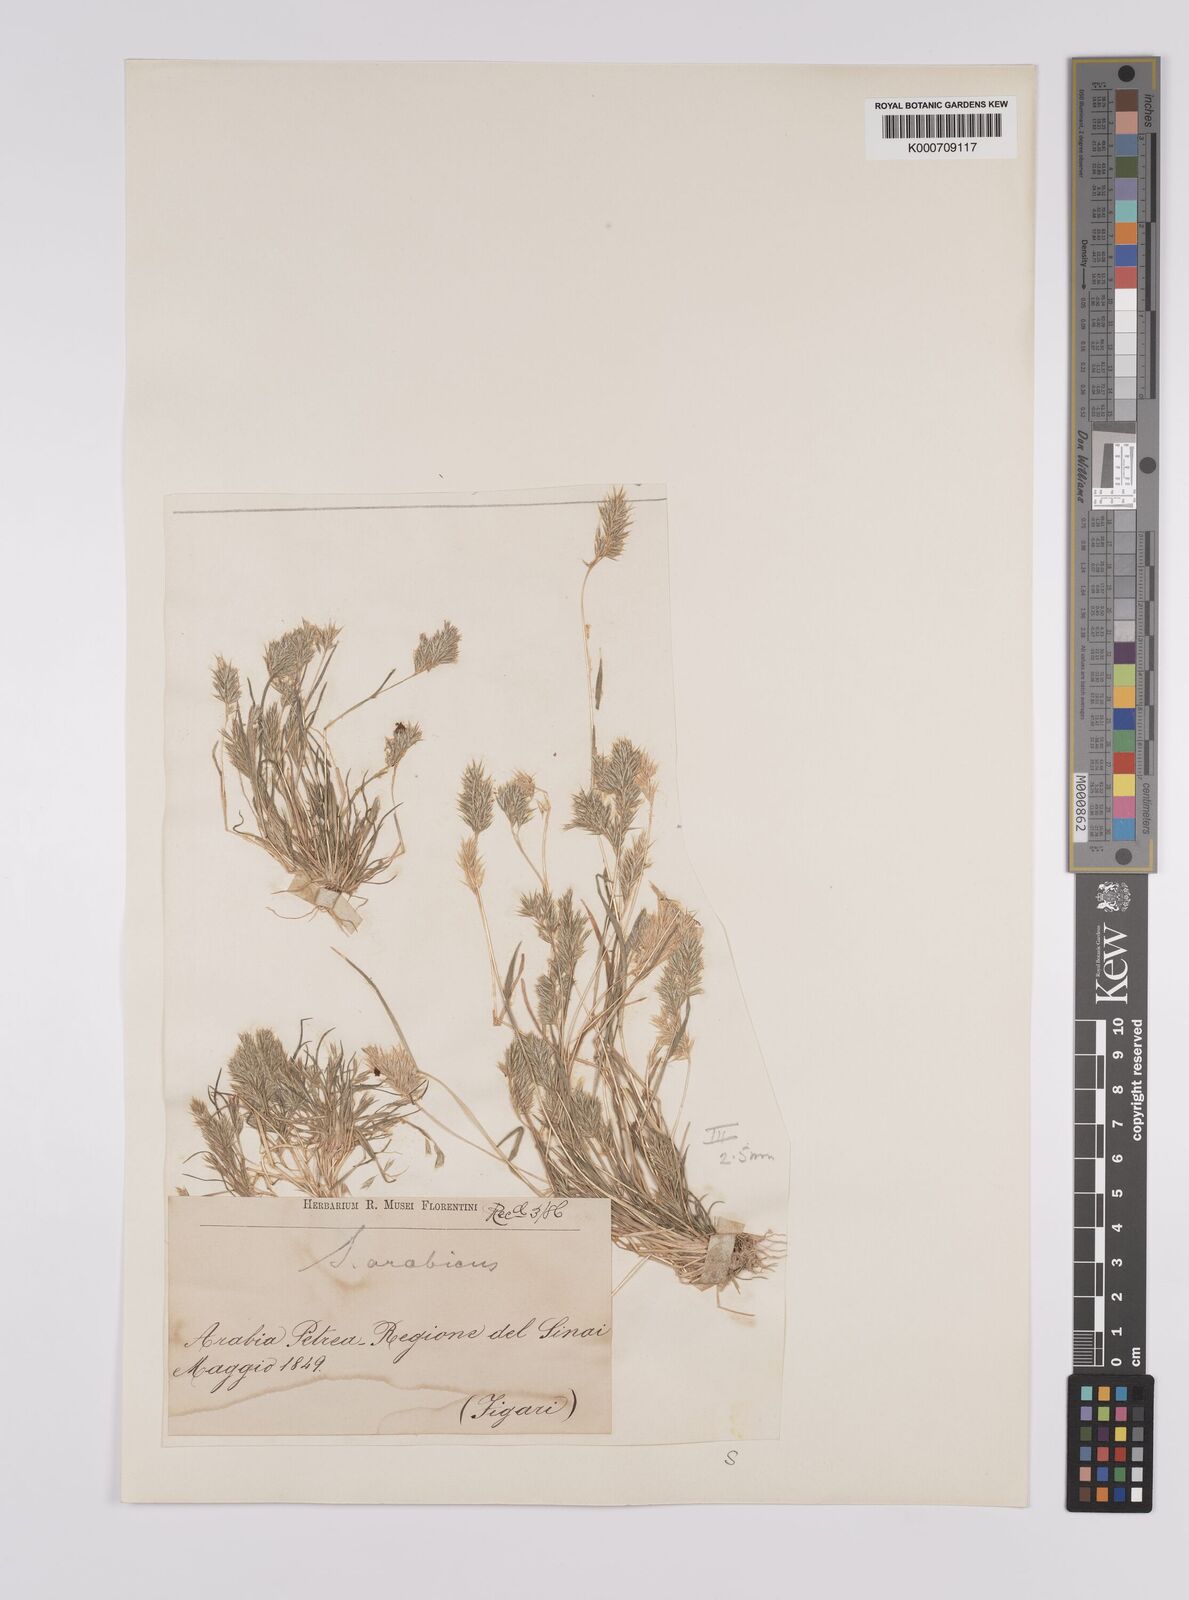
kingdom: Plantae
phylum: Tracheophyta
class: Liliopsida
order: Poales
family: Poaceae
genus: Schismus
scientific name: Schismus arabicus
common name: Arabian schismus
